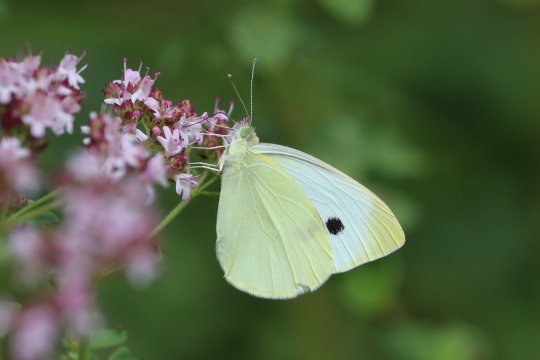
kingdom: Animalia
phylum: Arthropoda
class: Insecta
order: Lepidoptera
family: Pieridae
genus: Pieris
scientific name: Pieris rapae
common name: Cabbage White
